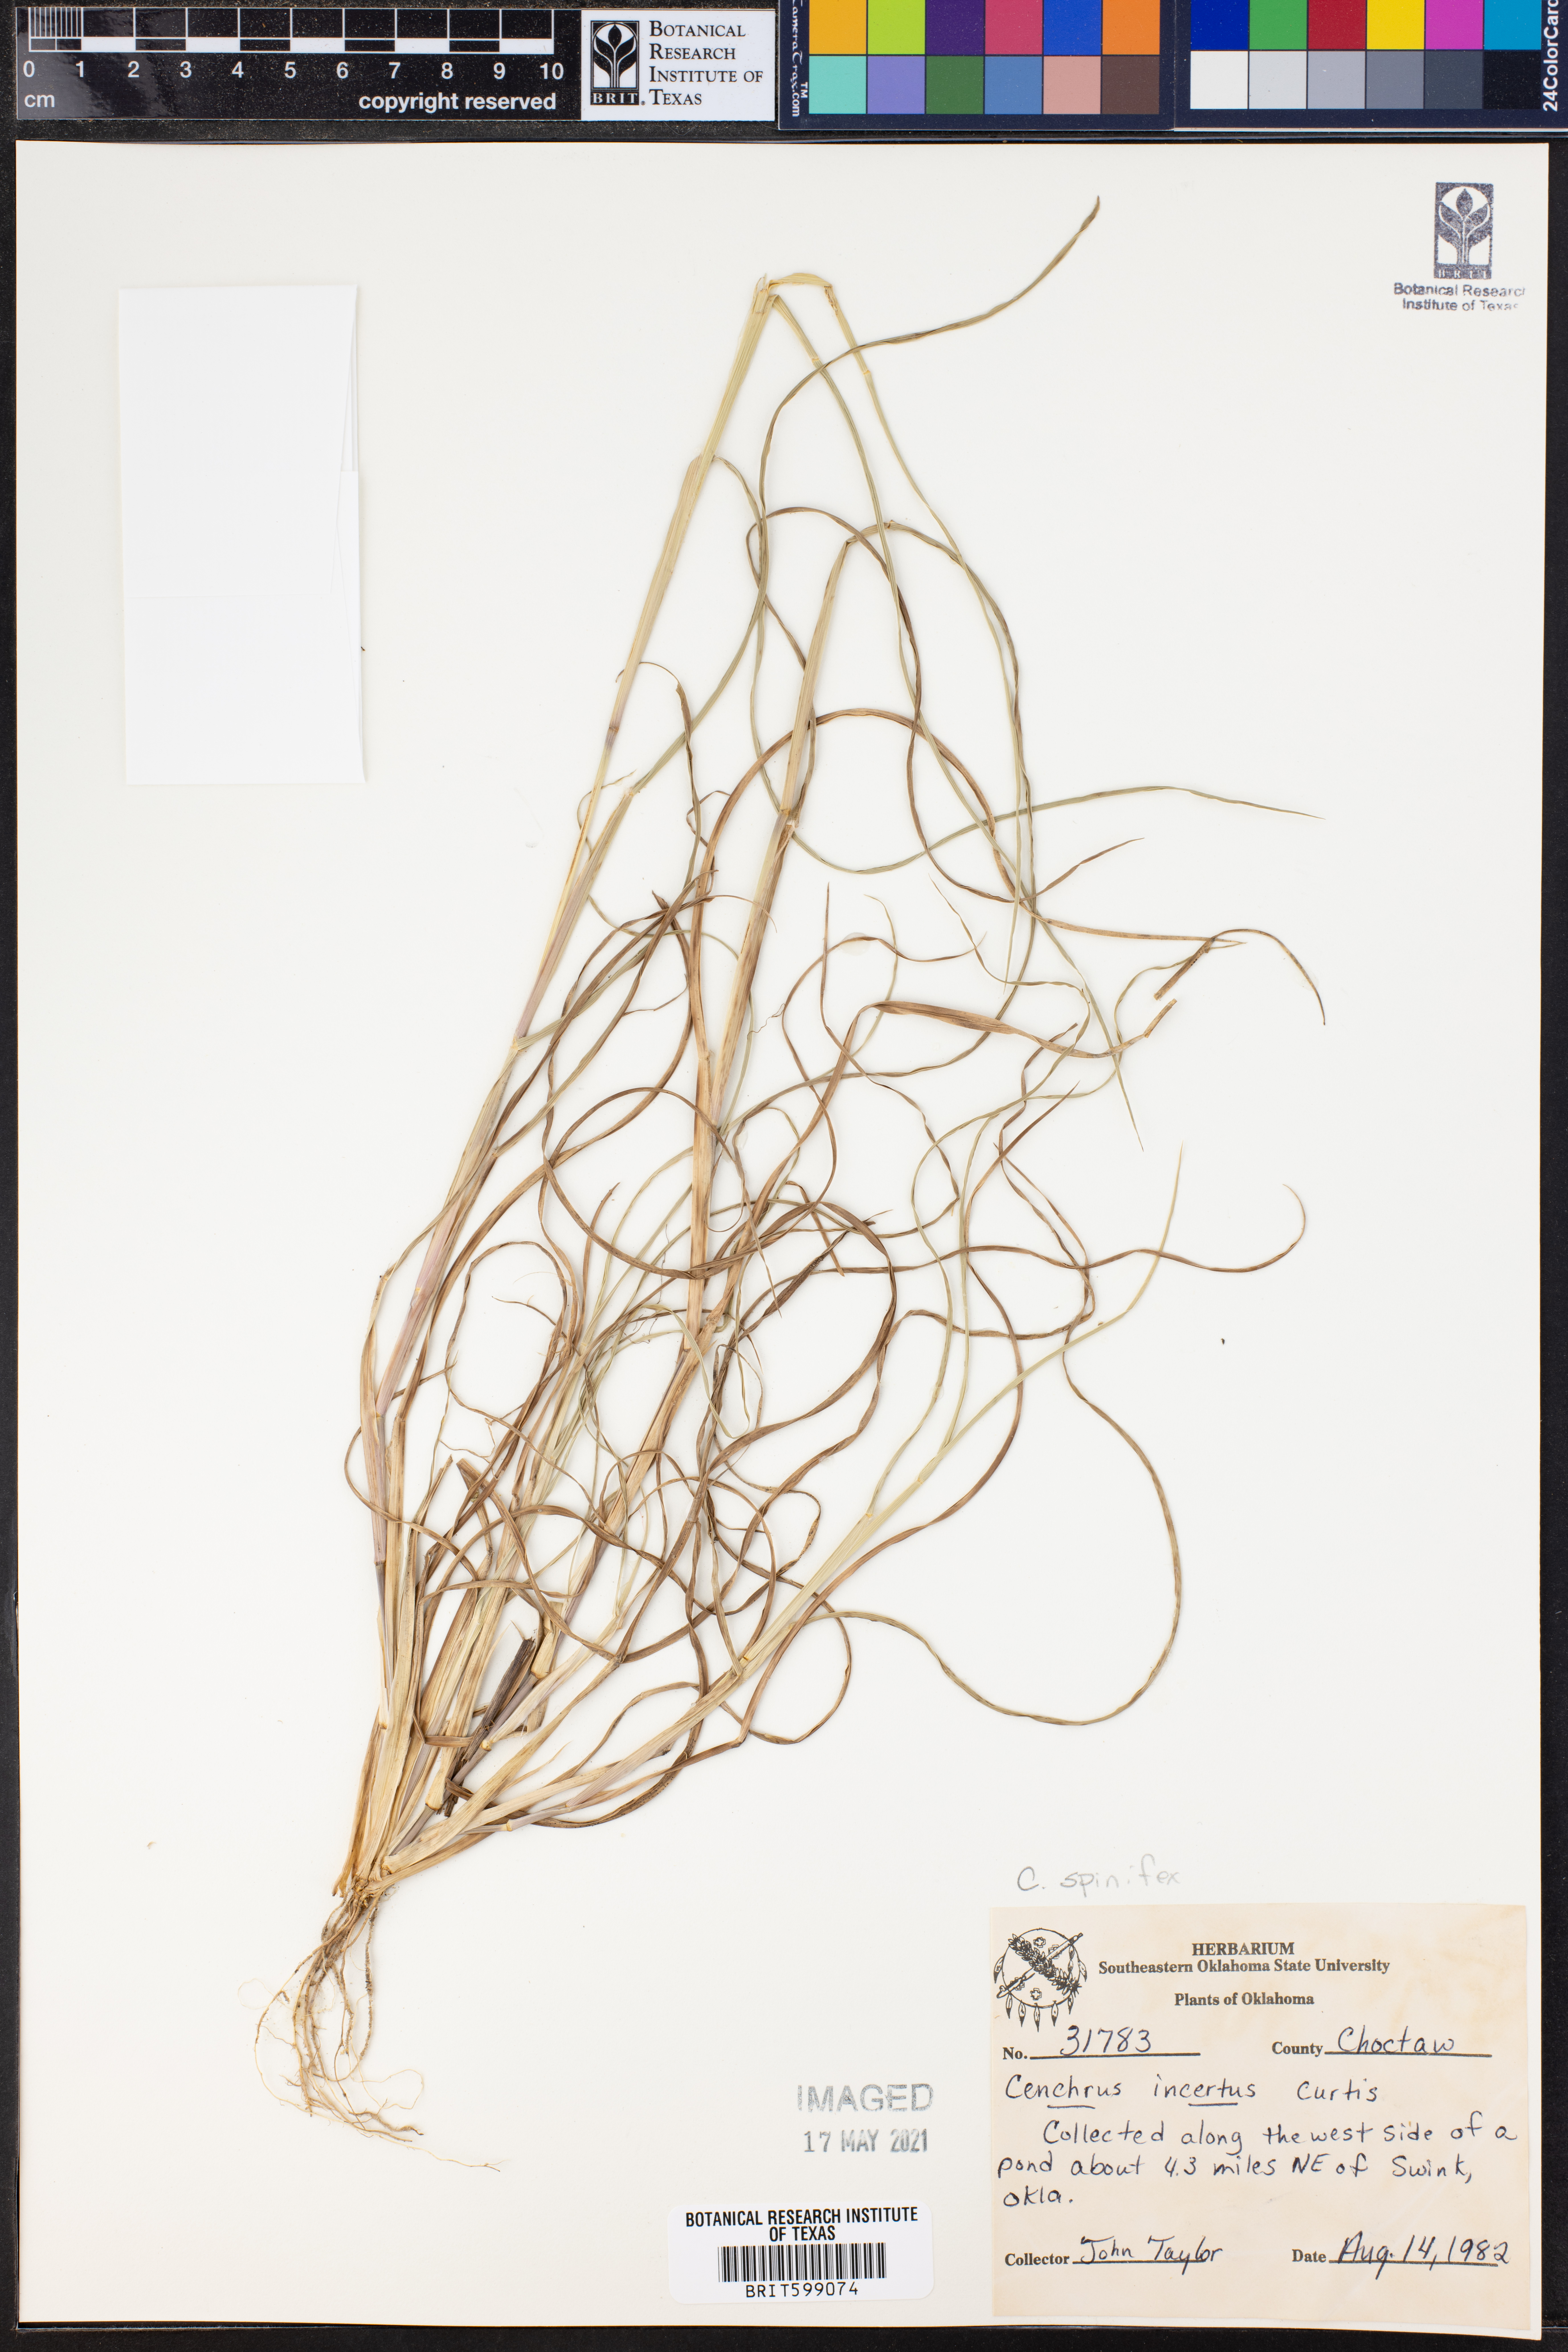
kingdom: Plantae
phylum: Tracheophyta
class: Liliopsida
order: Poales
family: Poaceae
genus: Cenchrus
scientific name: Cenchrus spinifex
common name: Coast sandbur
